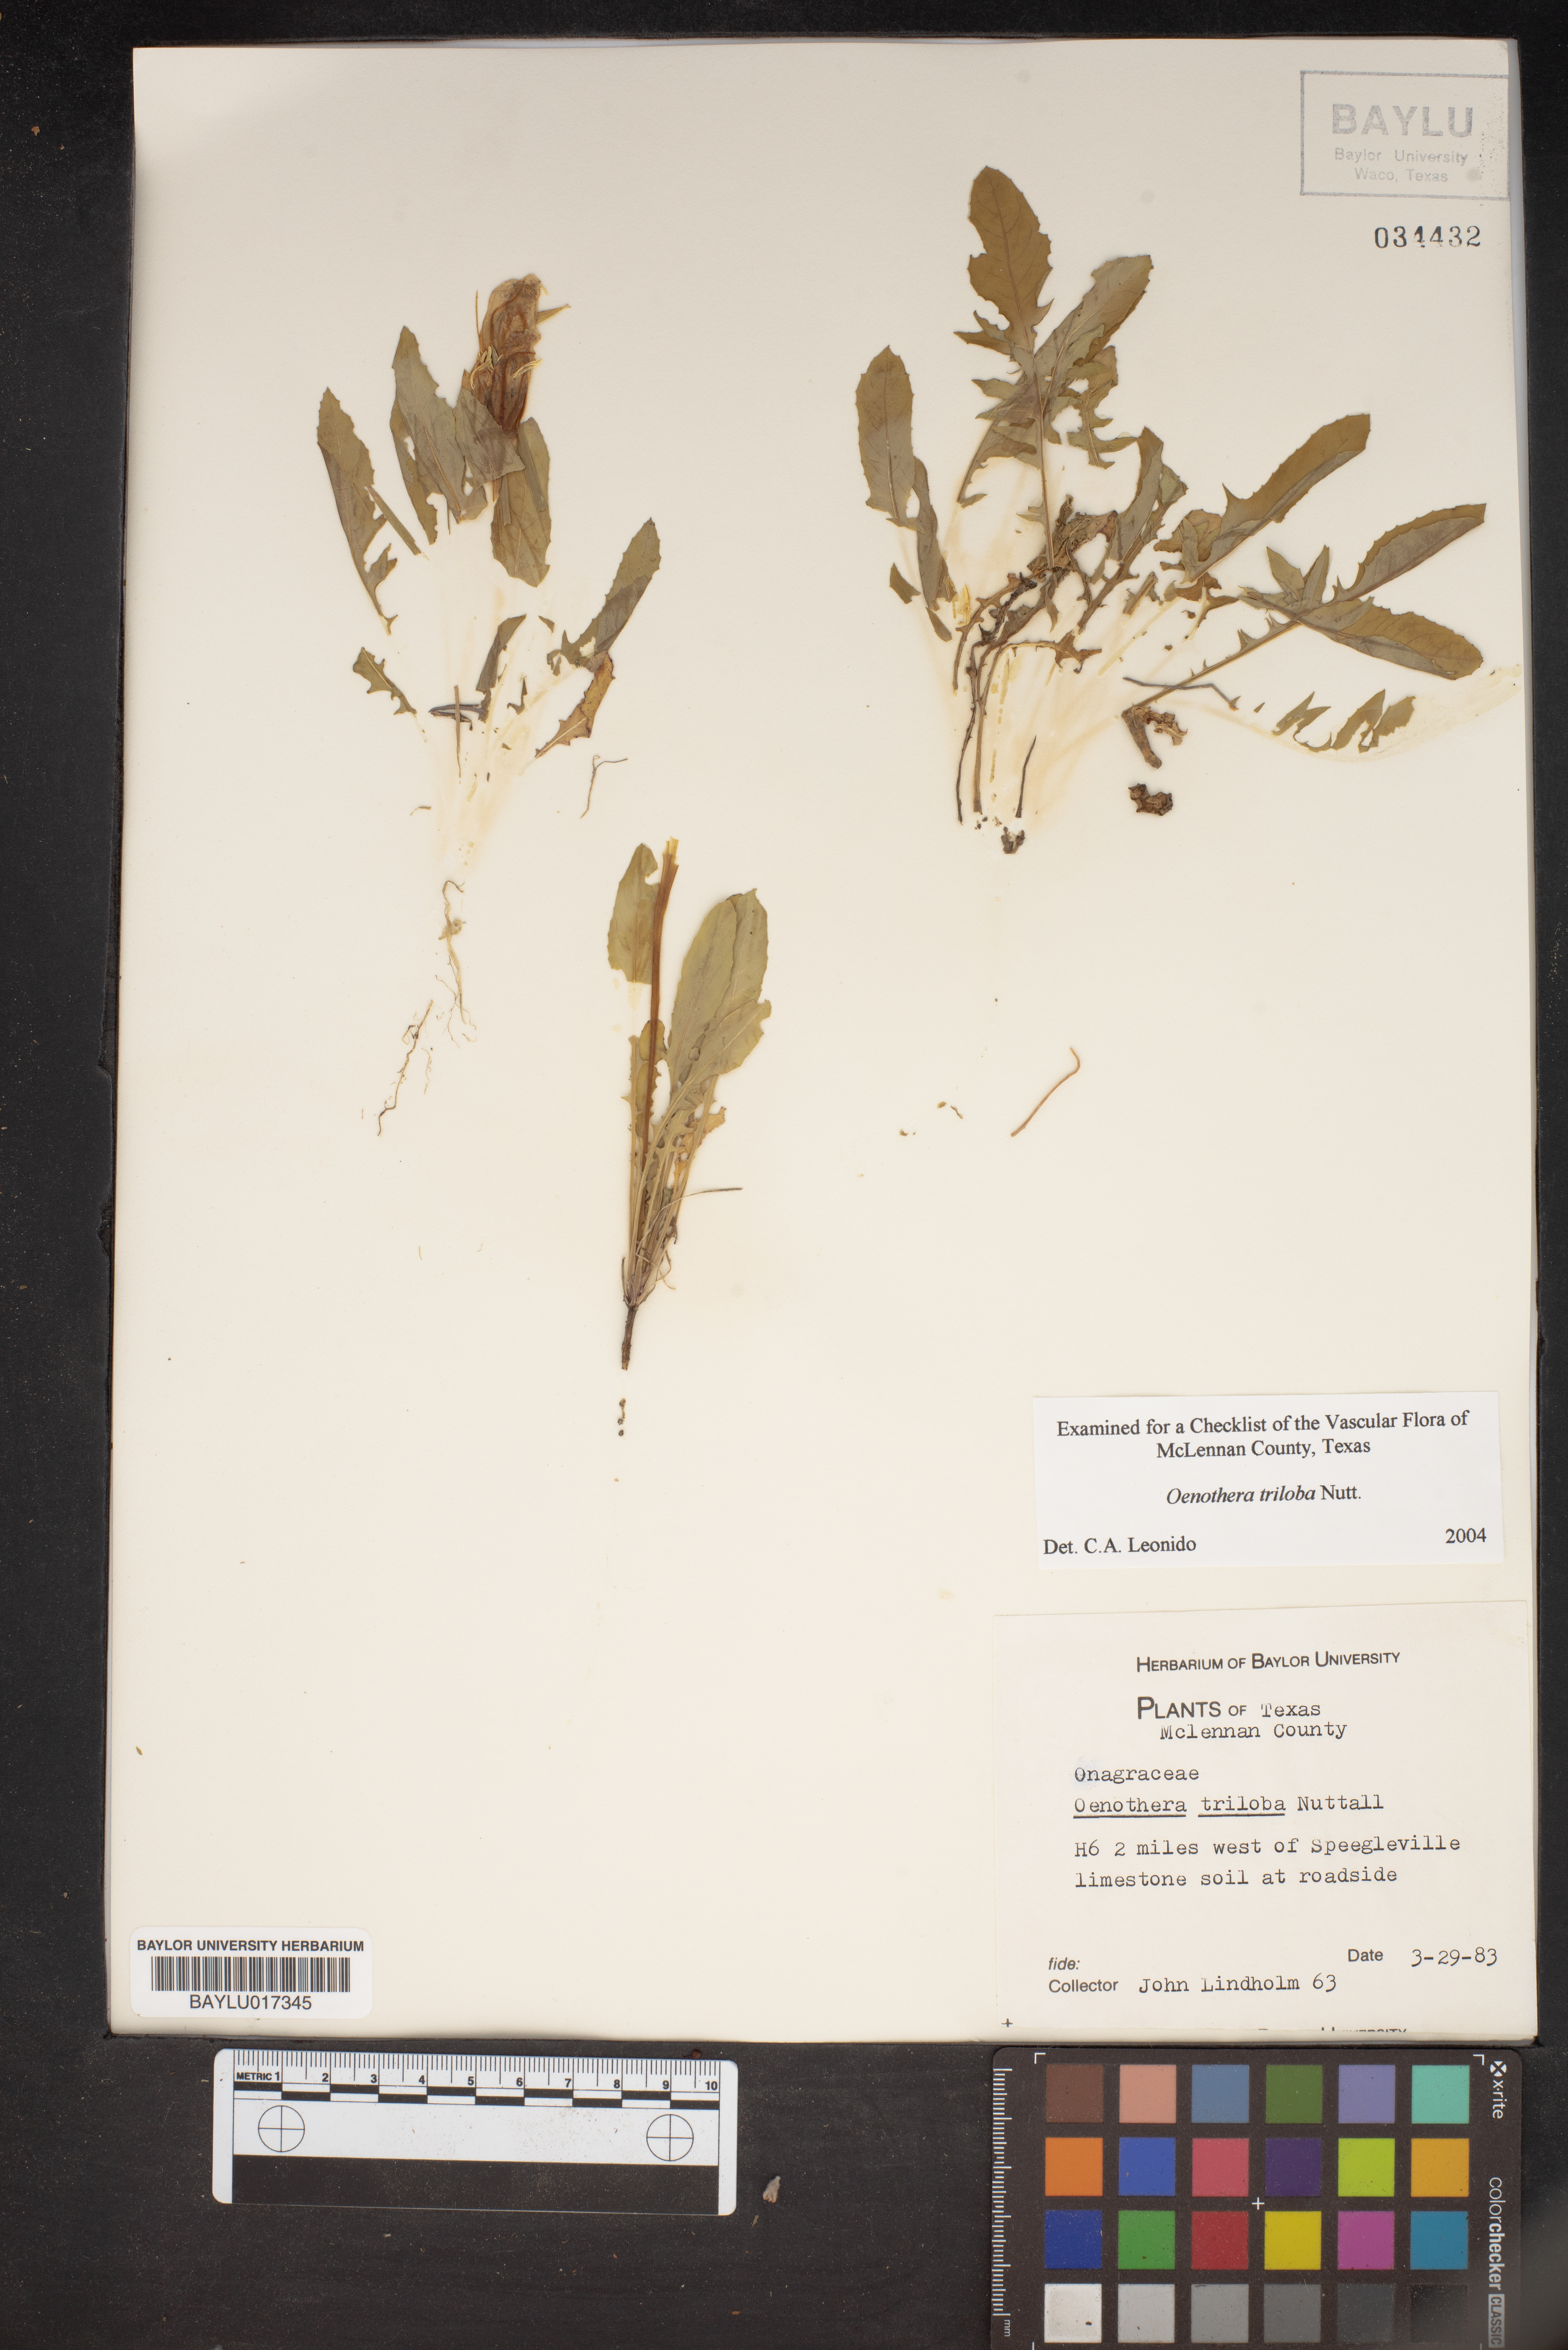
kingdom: Plantae
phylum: Tracheophyta
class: Magnoliopsida
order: Myrtales
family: Onagraceae
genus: Oenothera
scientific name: Oenothera triloba
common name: Sessile evening-primrose
